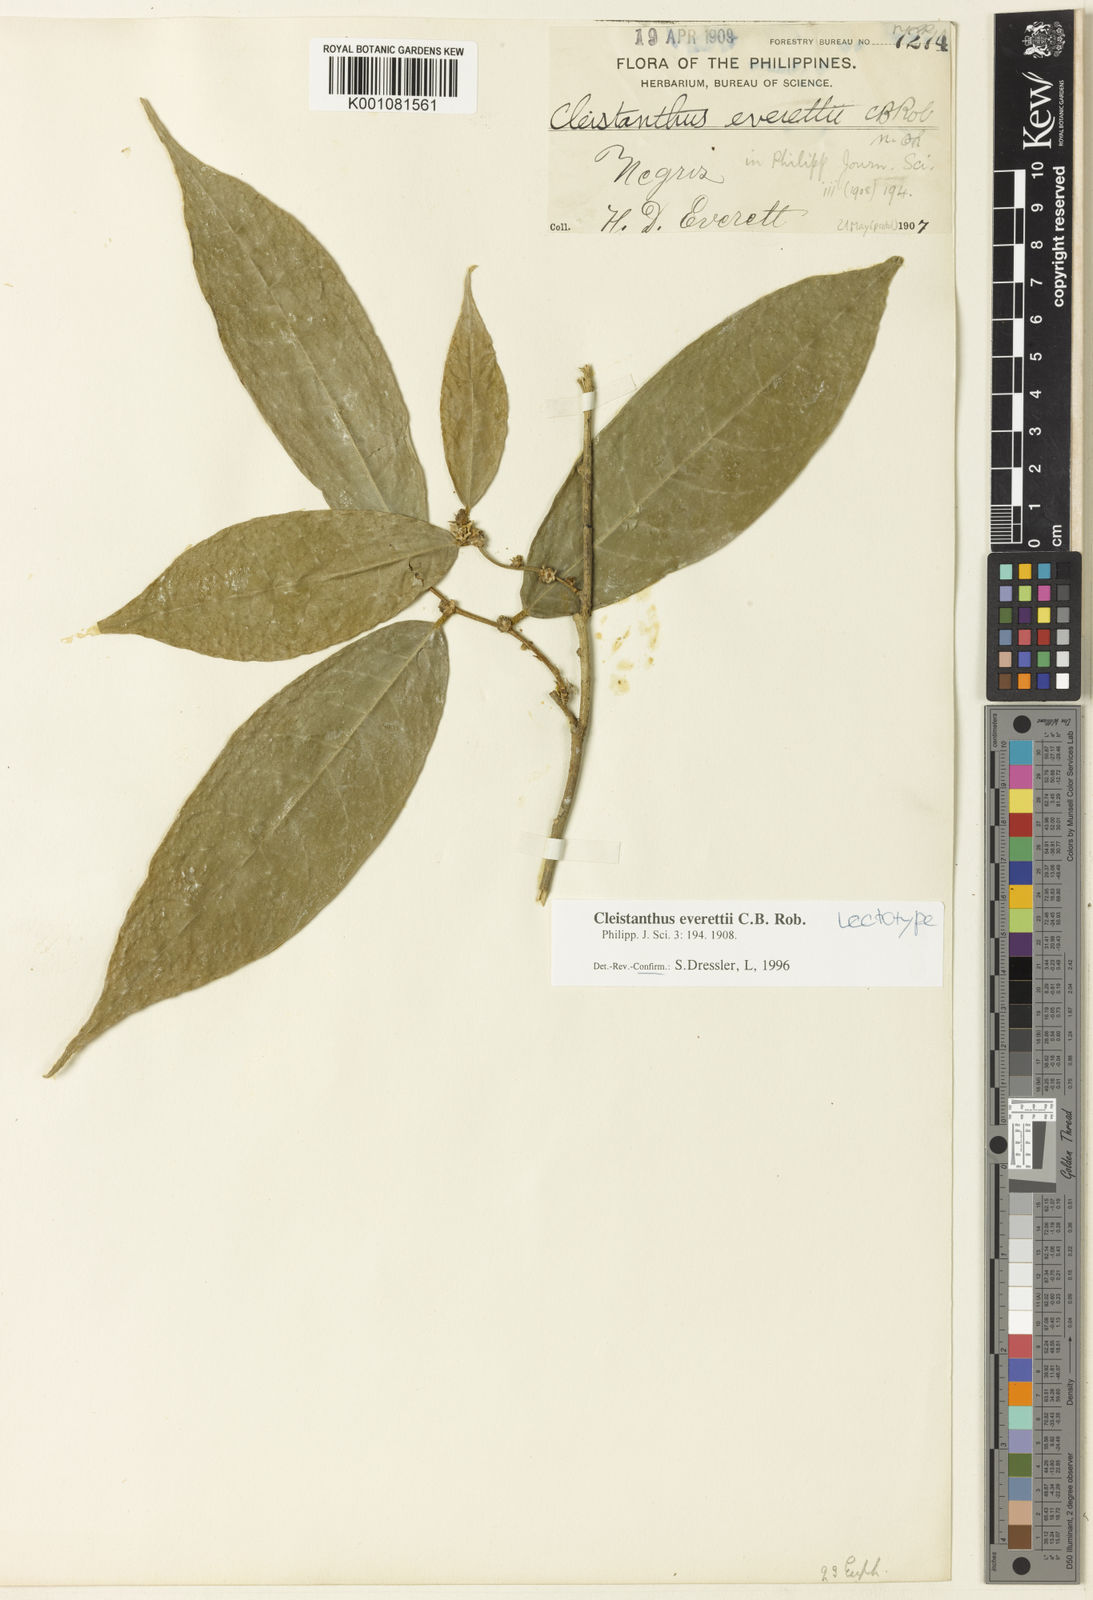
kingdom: Plantae
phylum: Tracheophyta
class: Magnoliopsida
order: Malpighiales
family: Phyllanthaceae
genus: Cleistanthus
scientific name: Cleistanthus everettii
